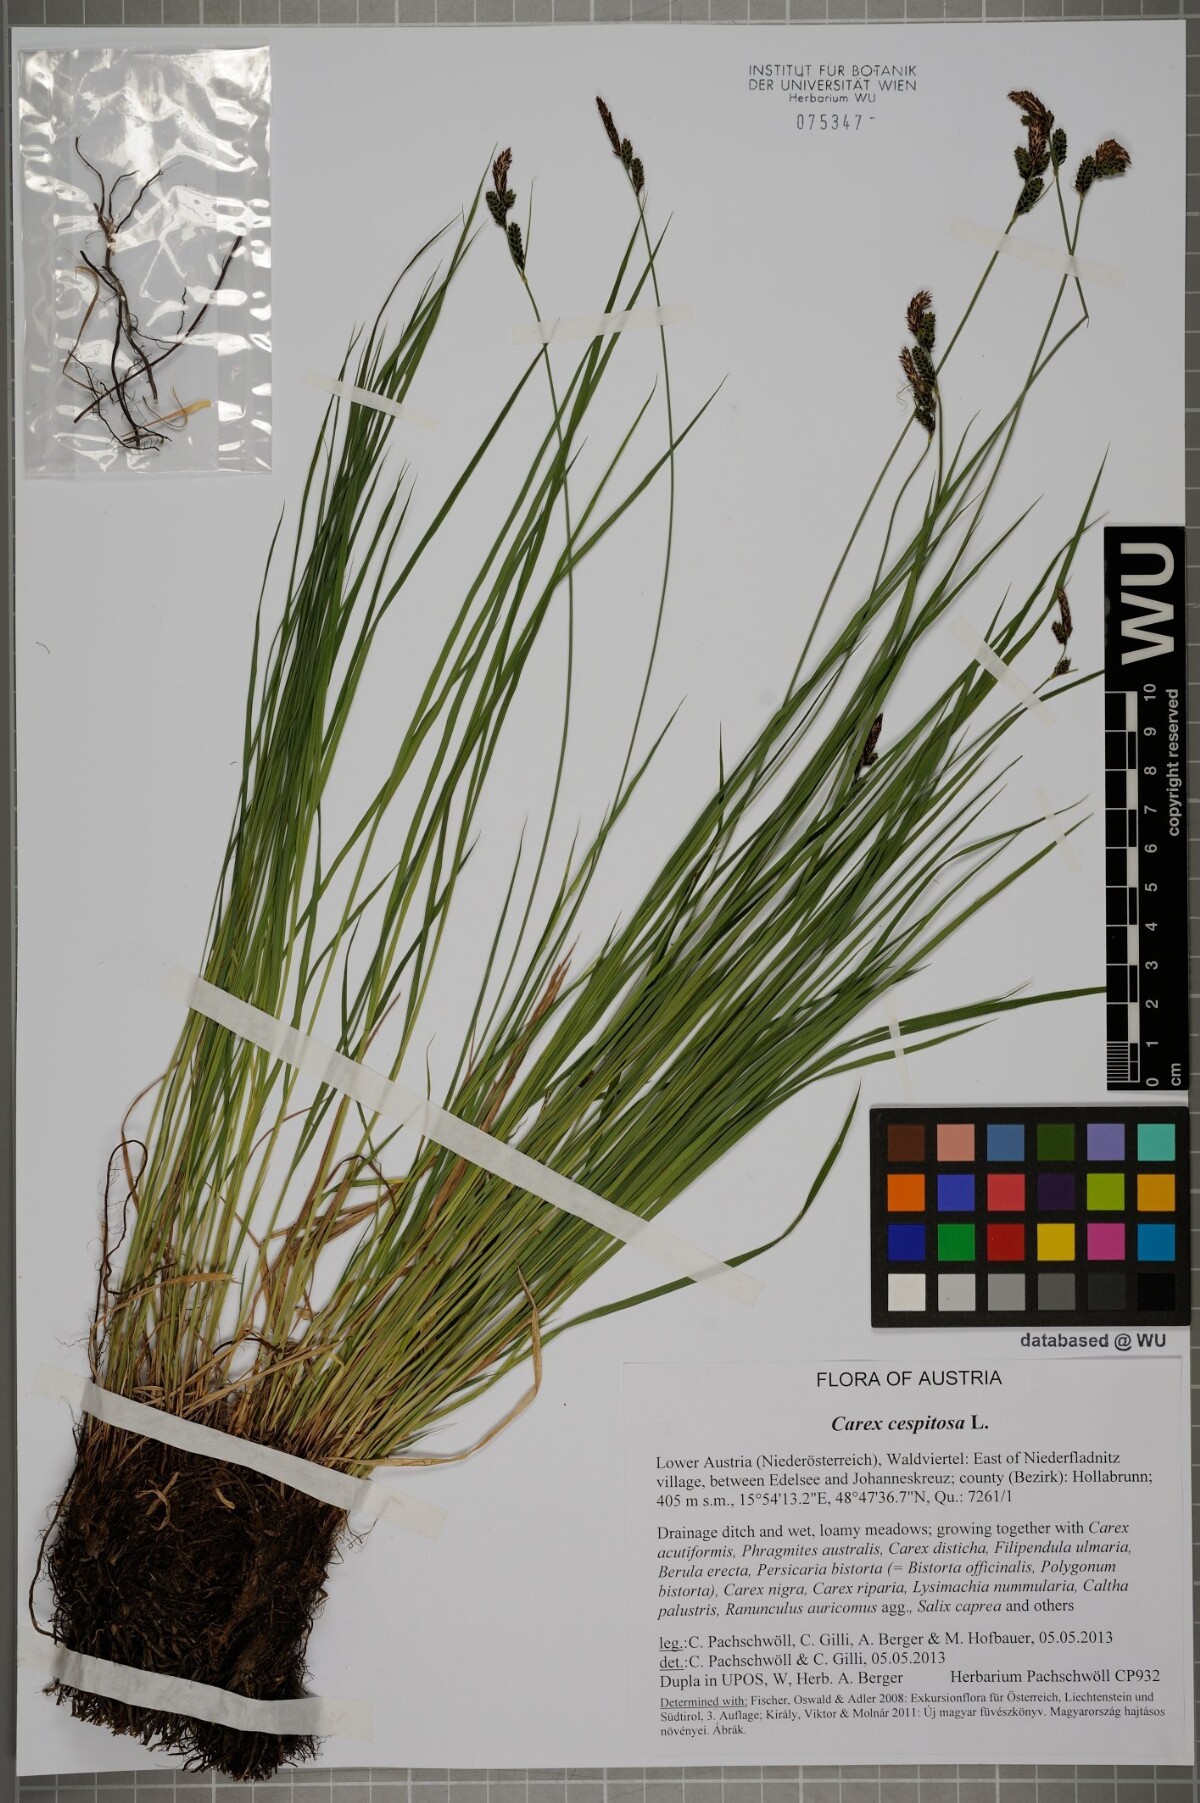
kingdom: Plantae
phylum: Tracheophyta
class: Liliopsida
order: Poales
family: Cyperaceae
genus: Carex
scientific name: Carex cespitosa
